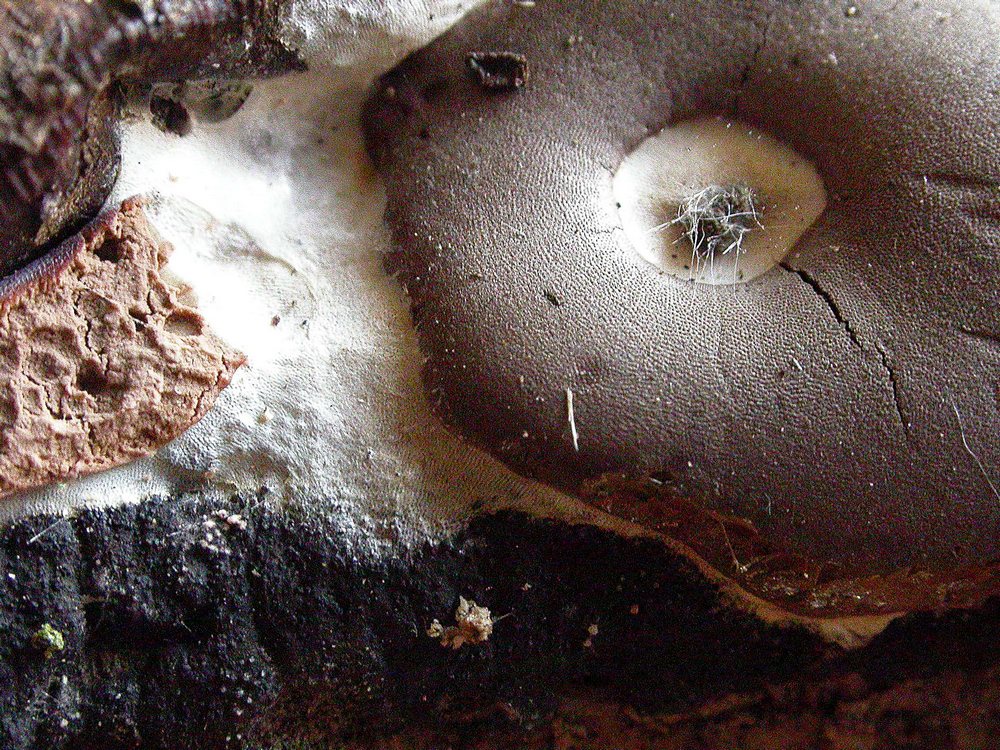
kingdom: Protozoa
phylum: Mycetozoa
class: Myxomycetes
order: Trichiales
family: Dictydiaethaliaceae
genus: Dictydiaethalium
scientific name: Dictydiaethalium plumbeum
